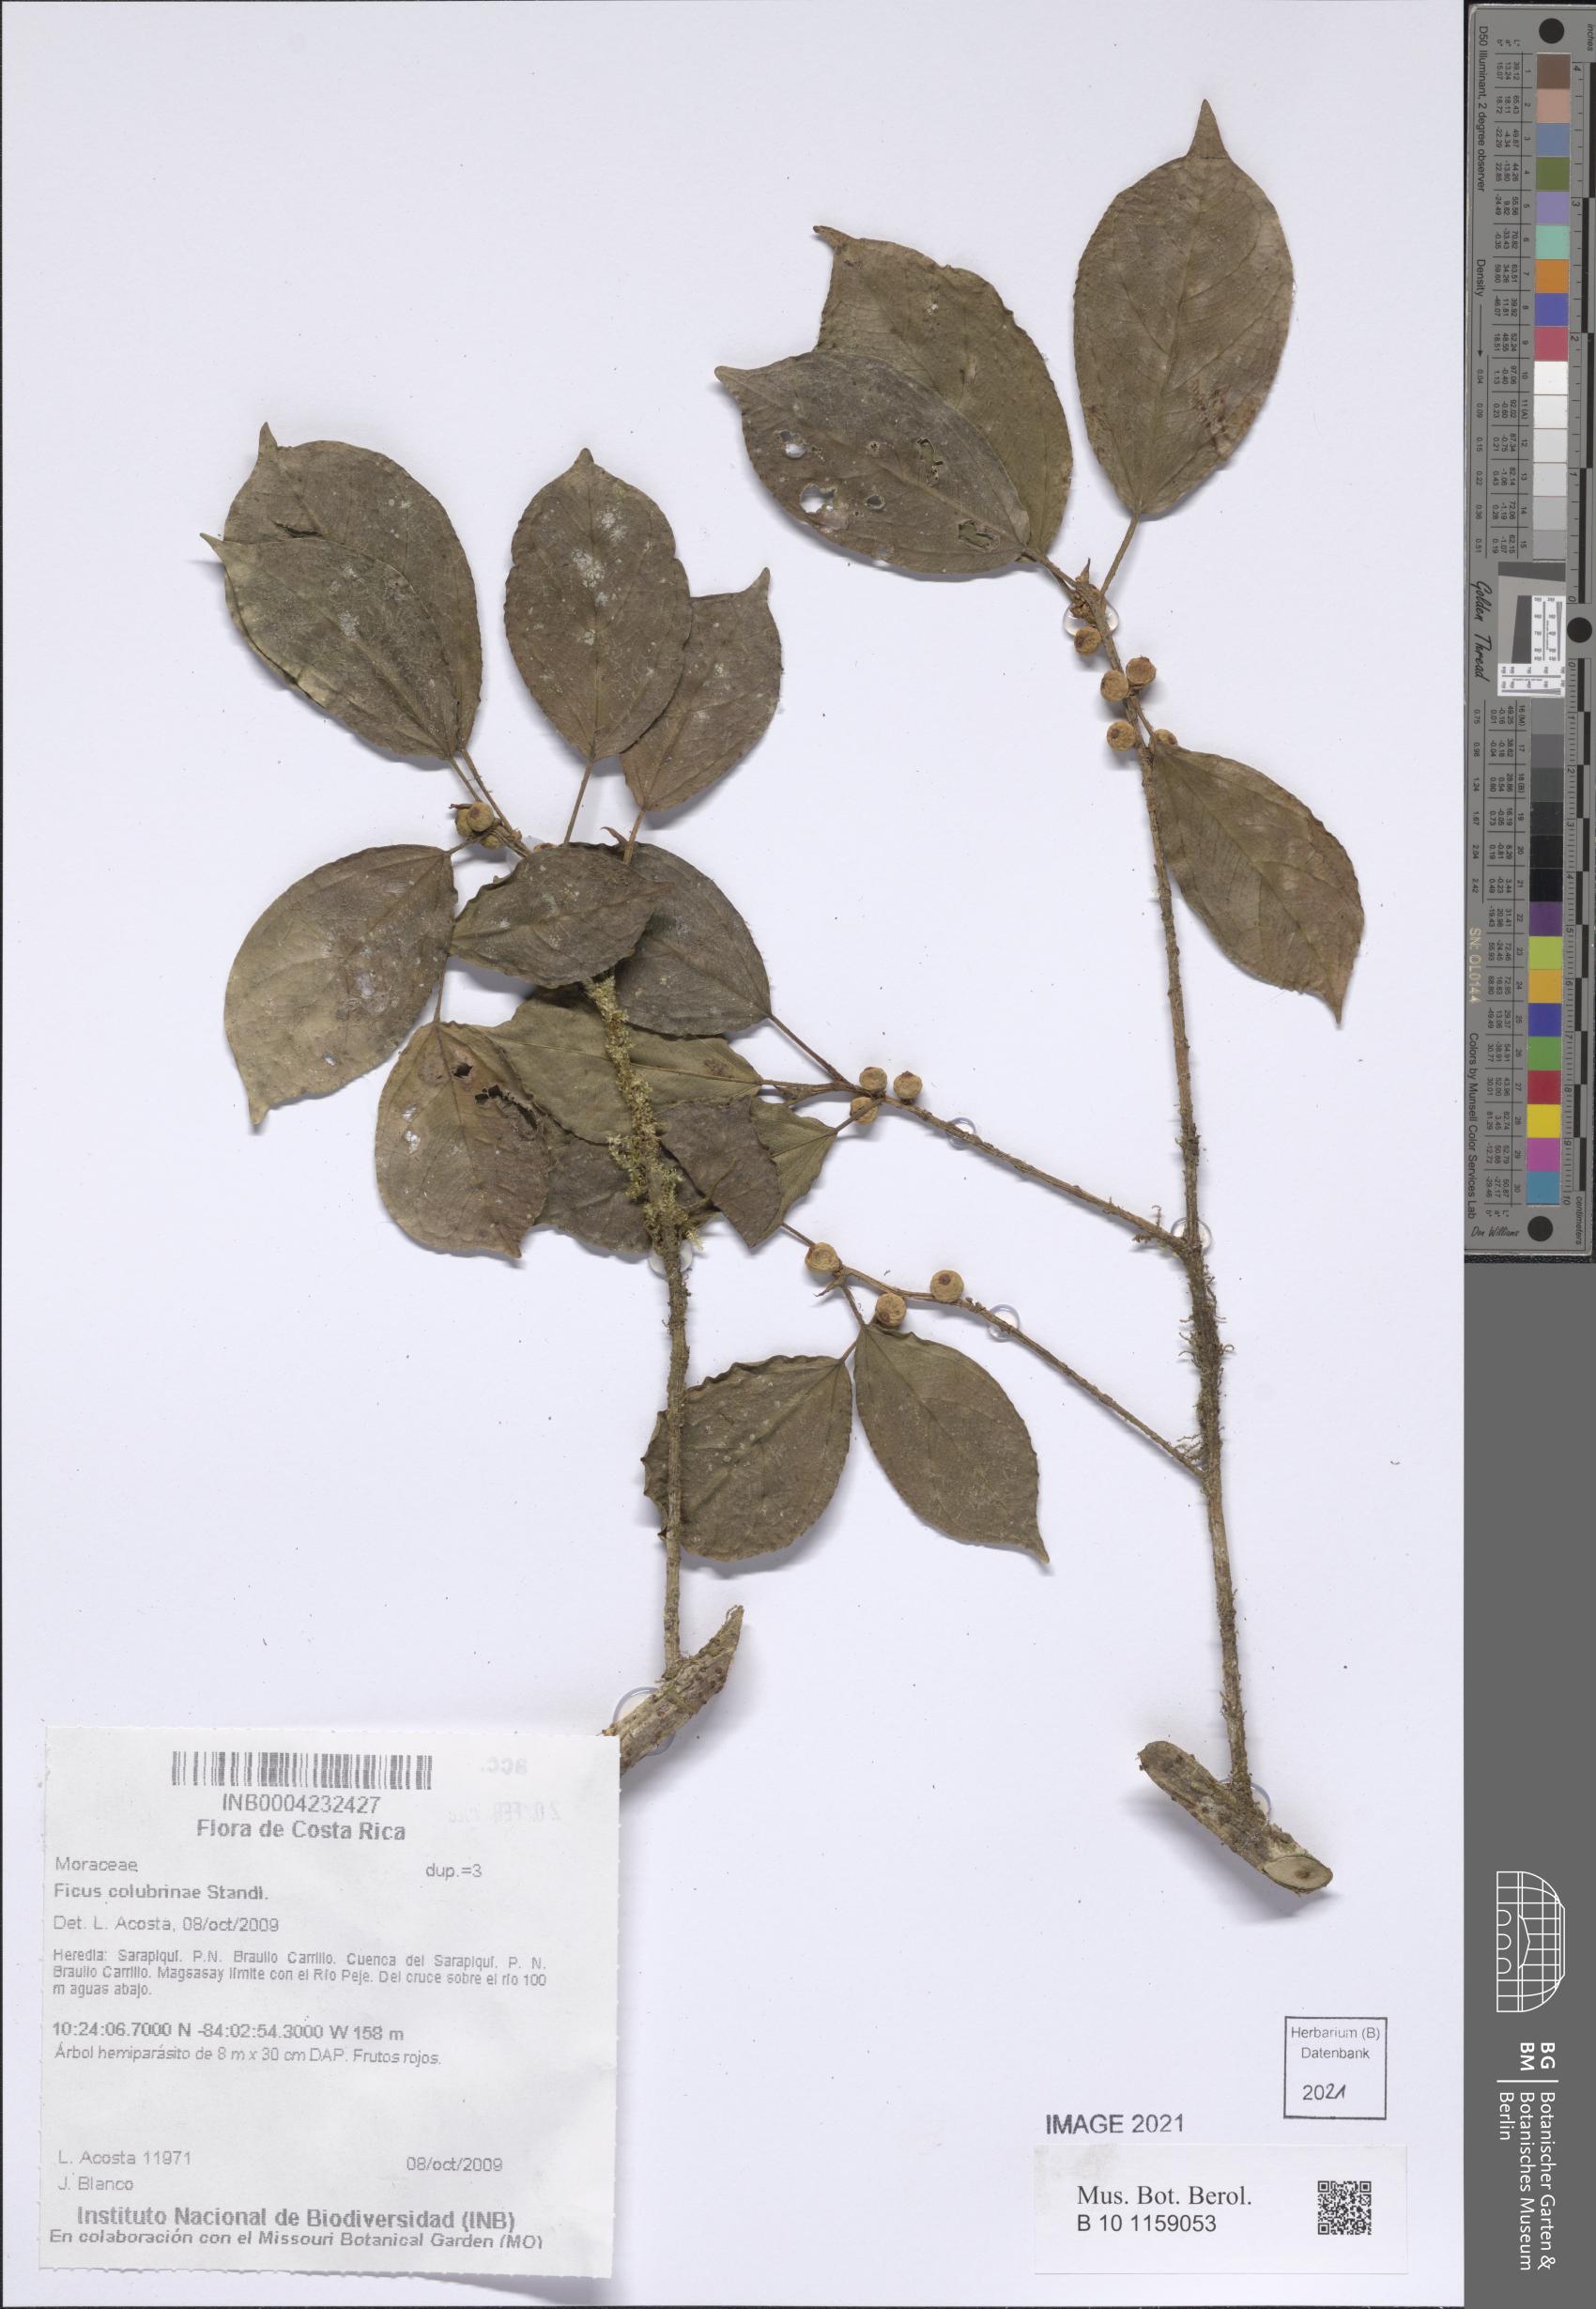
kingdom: Plantae
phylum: Tracheophyta
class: Magnoliopsida
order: Rosales
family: Moraceae
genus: Ficus
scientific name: Ficus colubrinae
